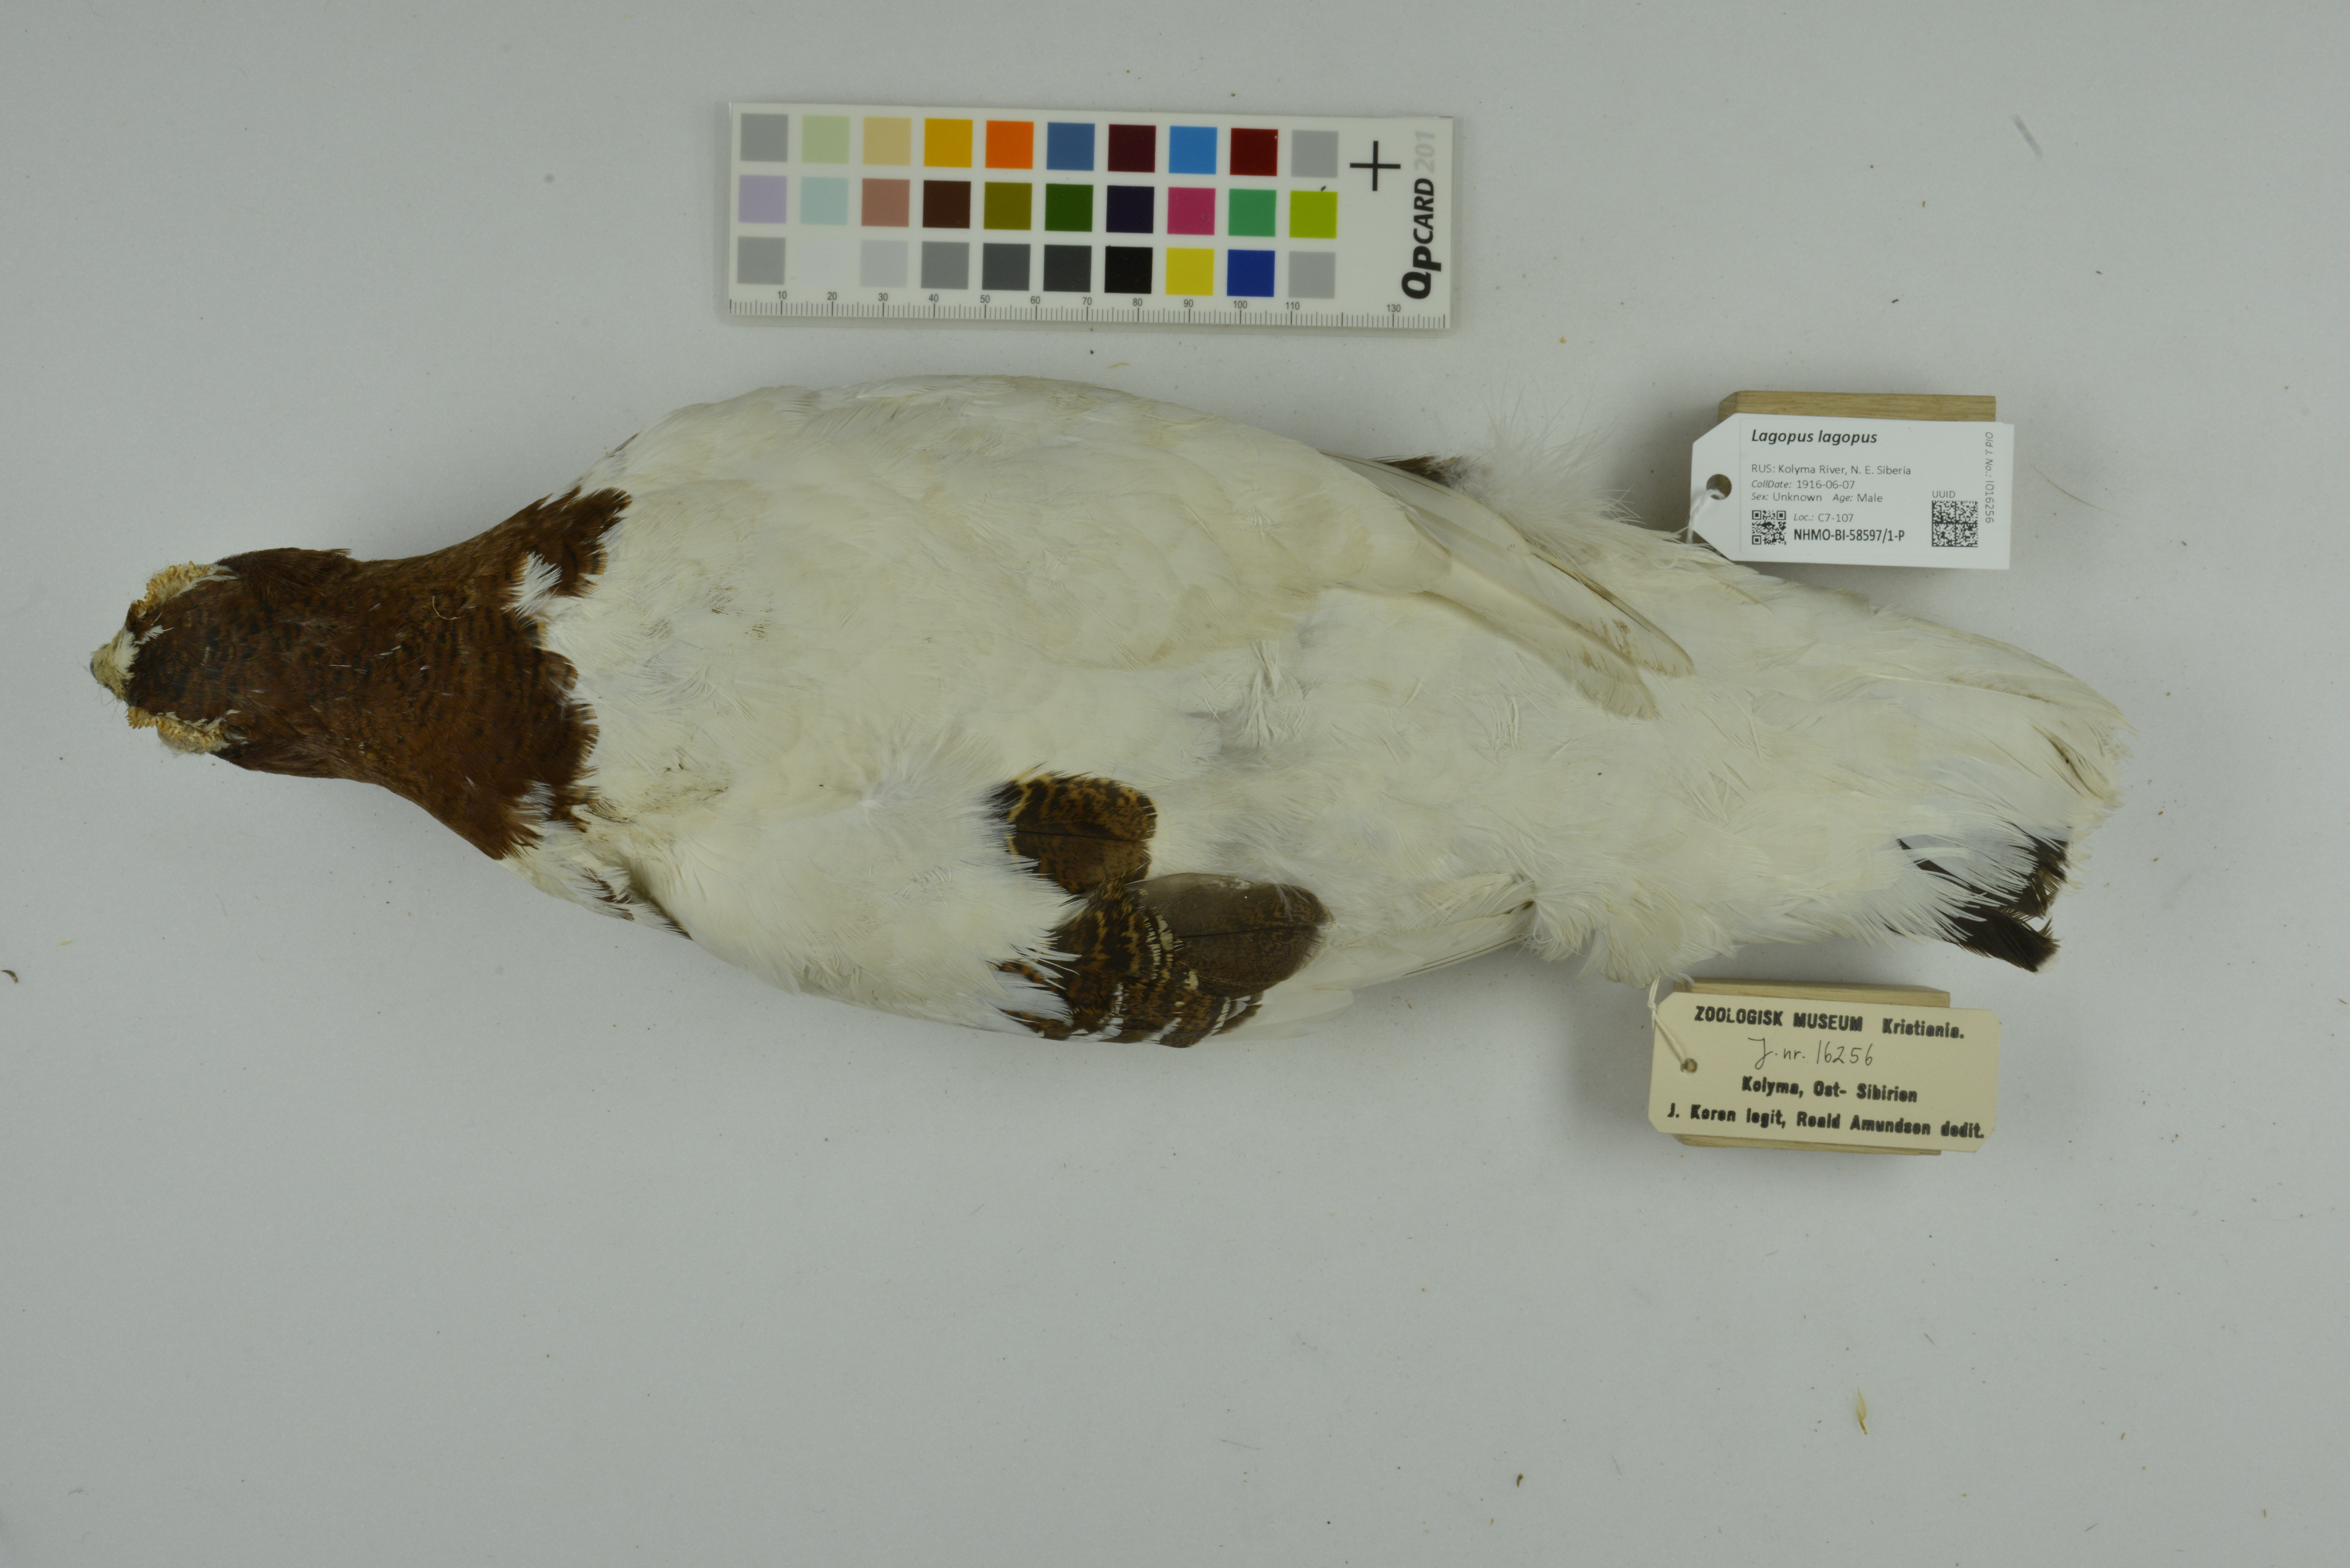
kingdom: Animalia
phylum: Chordata
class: Aves
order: Galliformes
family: Phasianidae
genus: Lagopus
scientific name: Lagopus lagopus
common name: Willow ptarmigan
